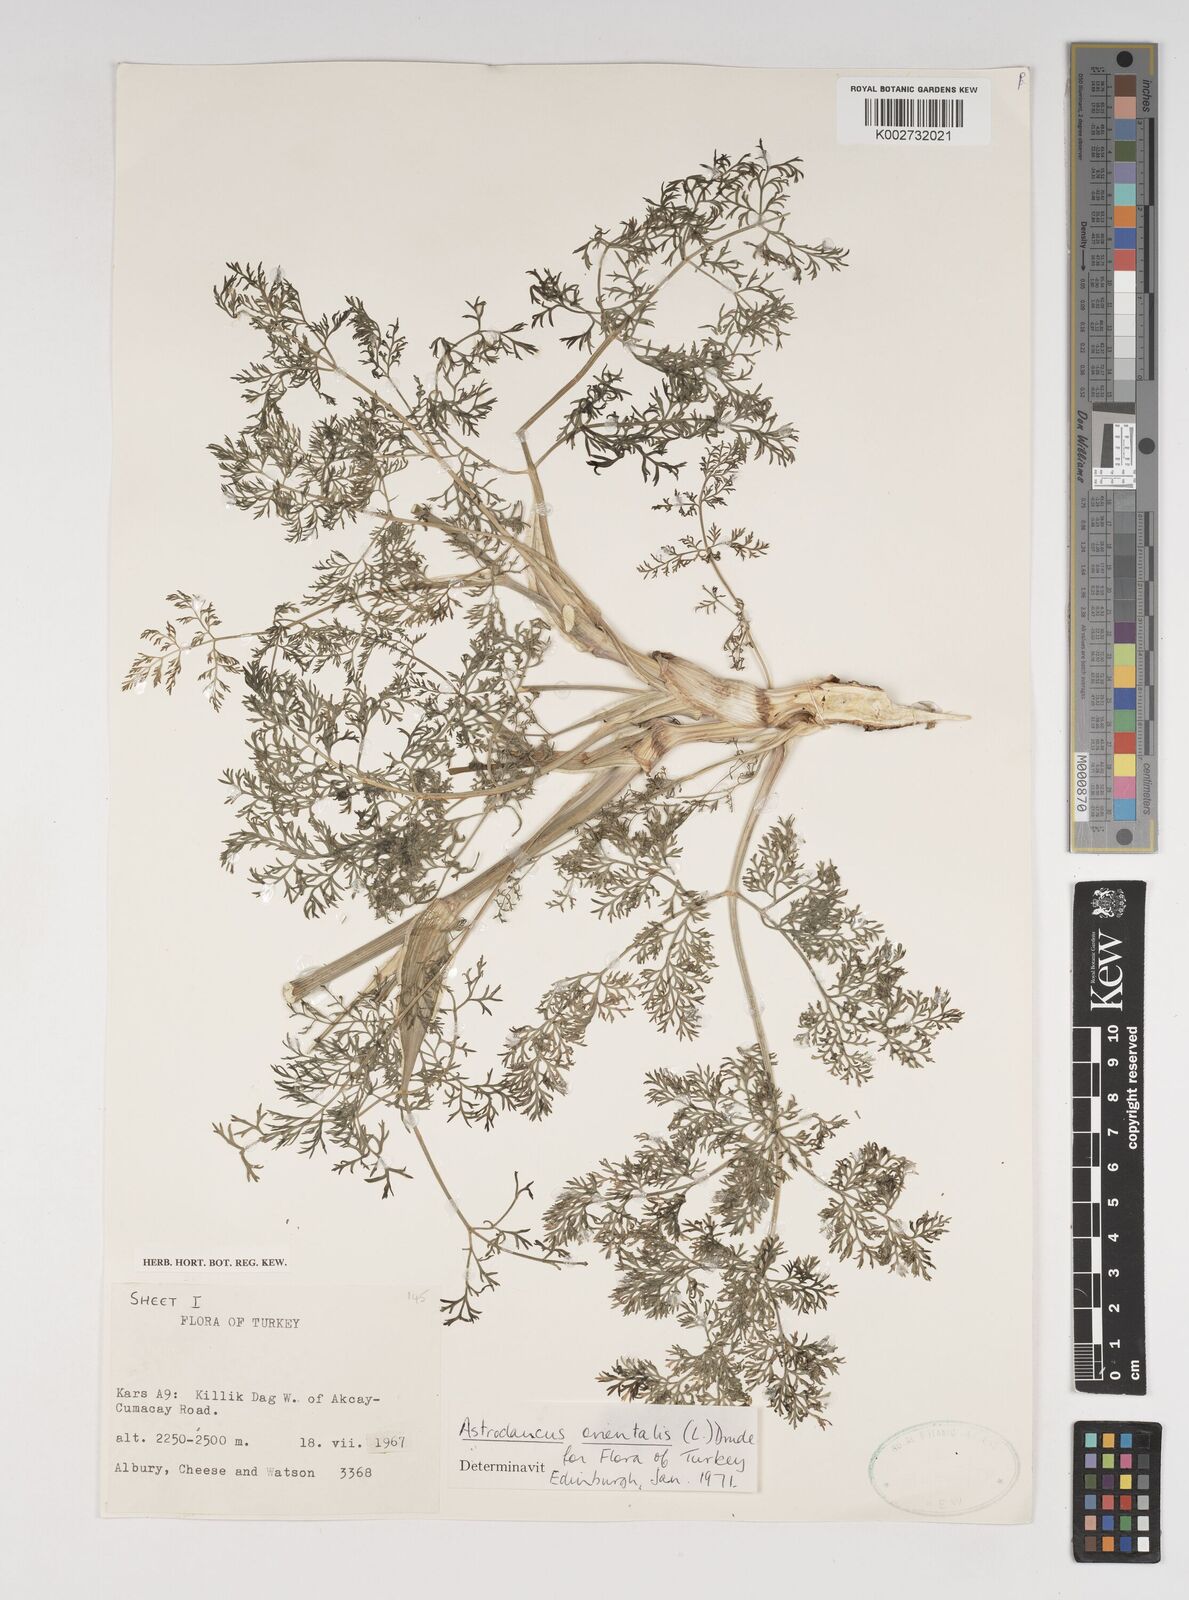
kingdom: Plantae
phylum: Tracheophyta
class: Magnoliopsida
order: Apiales
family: Apiaceae
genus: Astrodaucus
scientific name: Astrodaucus
